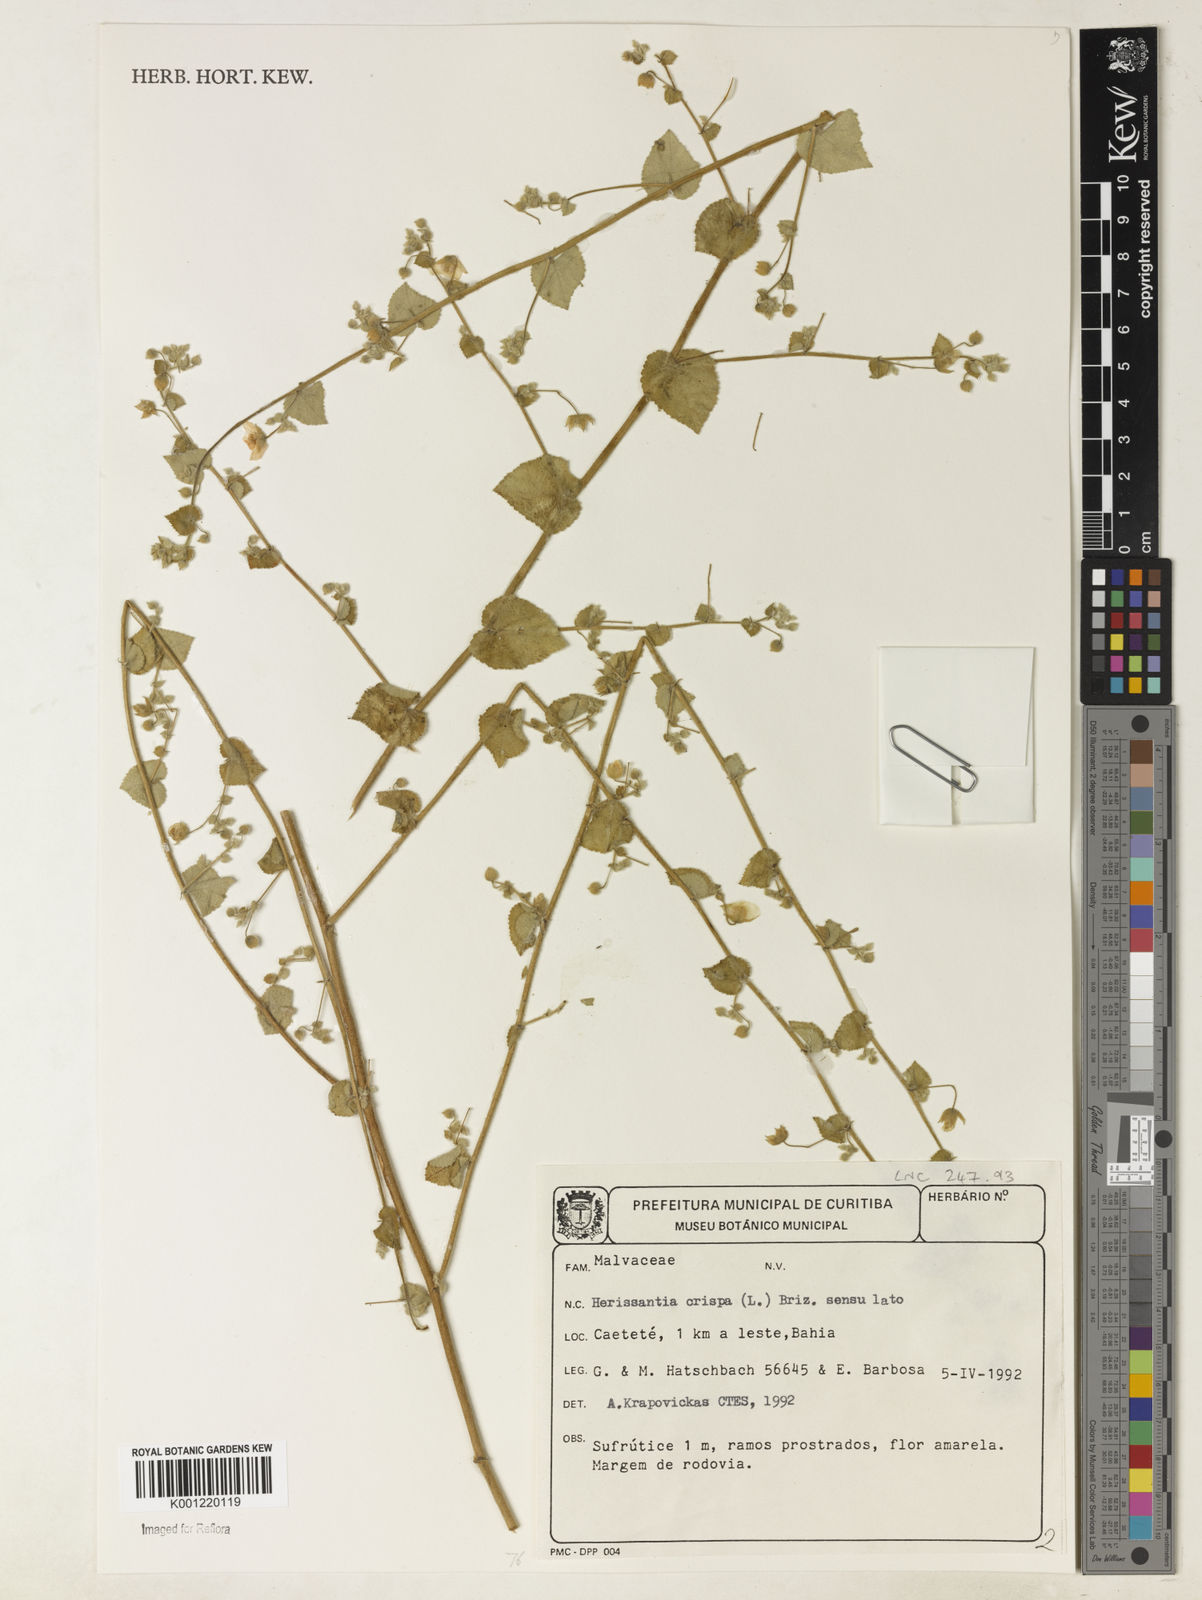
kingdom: Plantae
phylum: Tracheophyta
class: Magnoliopsida
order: Malvales
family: Malvaceae
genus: Herissantia
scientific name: Herissantia crispa
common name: Bladdermallow
